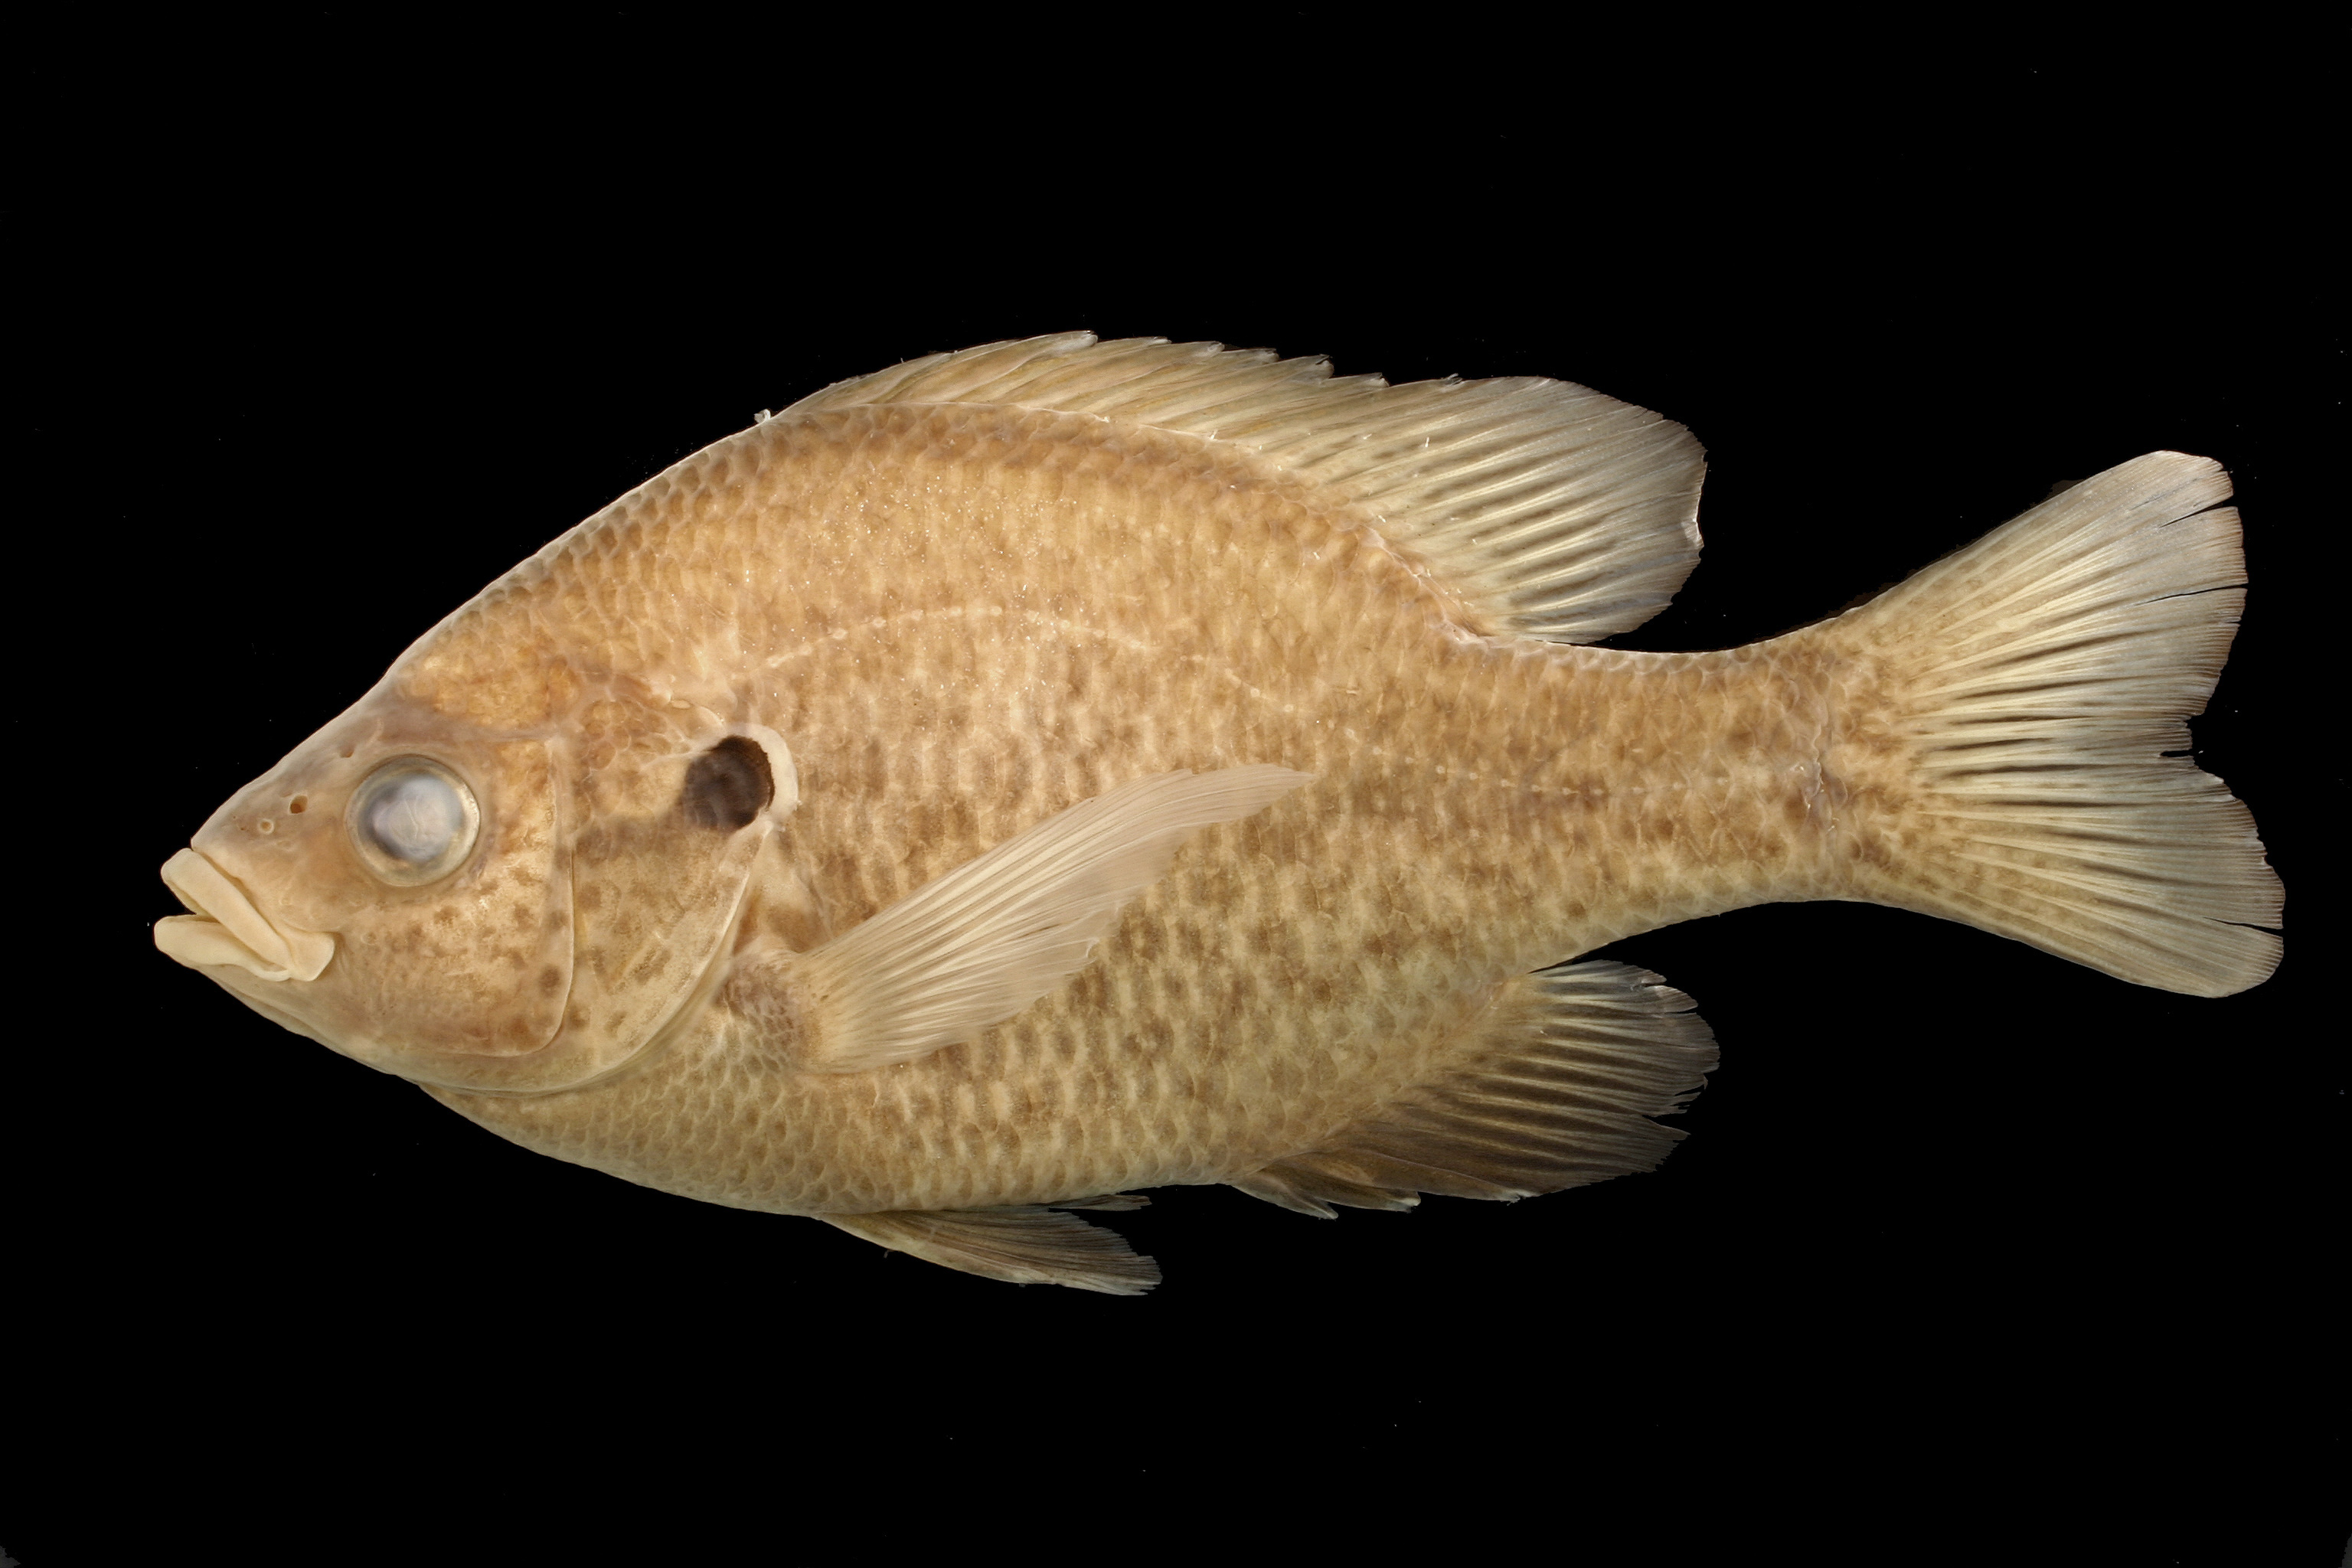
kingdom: Animalia
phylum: Chordata
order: Perciformes
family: Centrarchidae
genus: Lepomis
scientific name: Lepomis microlophus
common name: Redear sunfish
